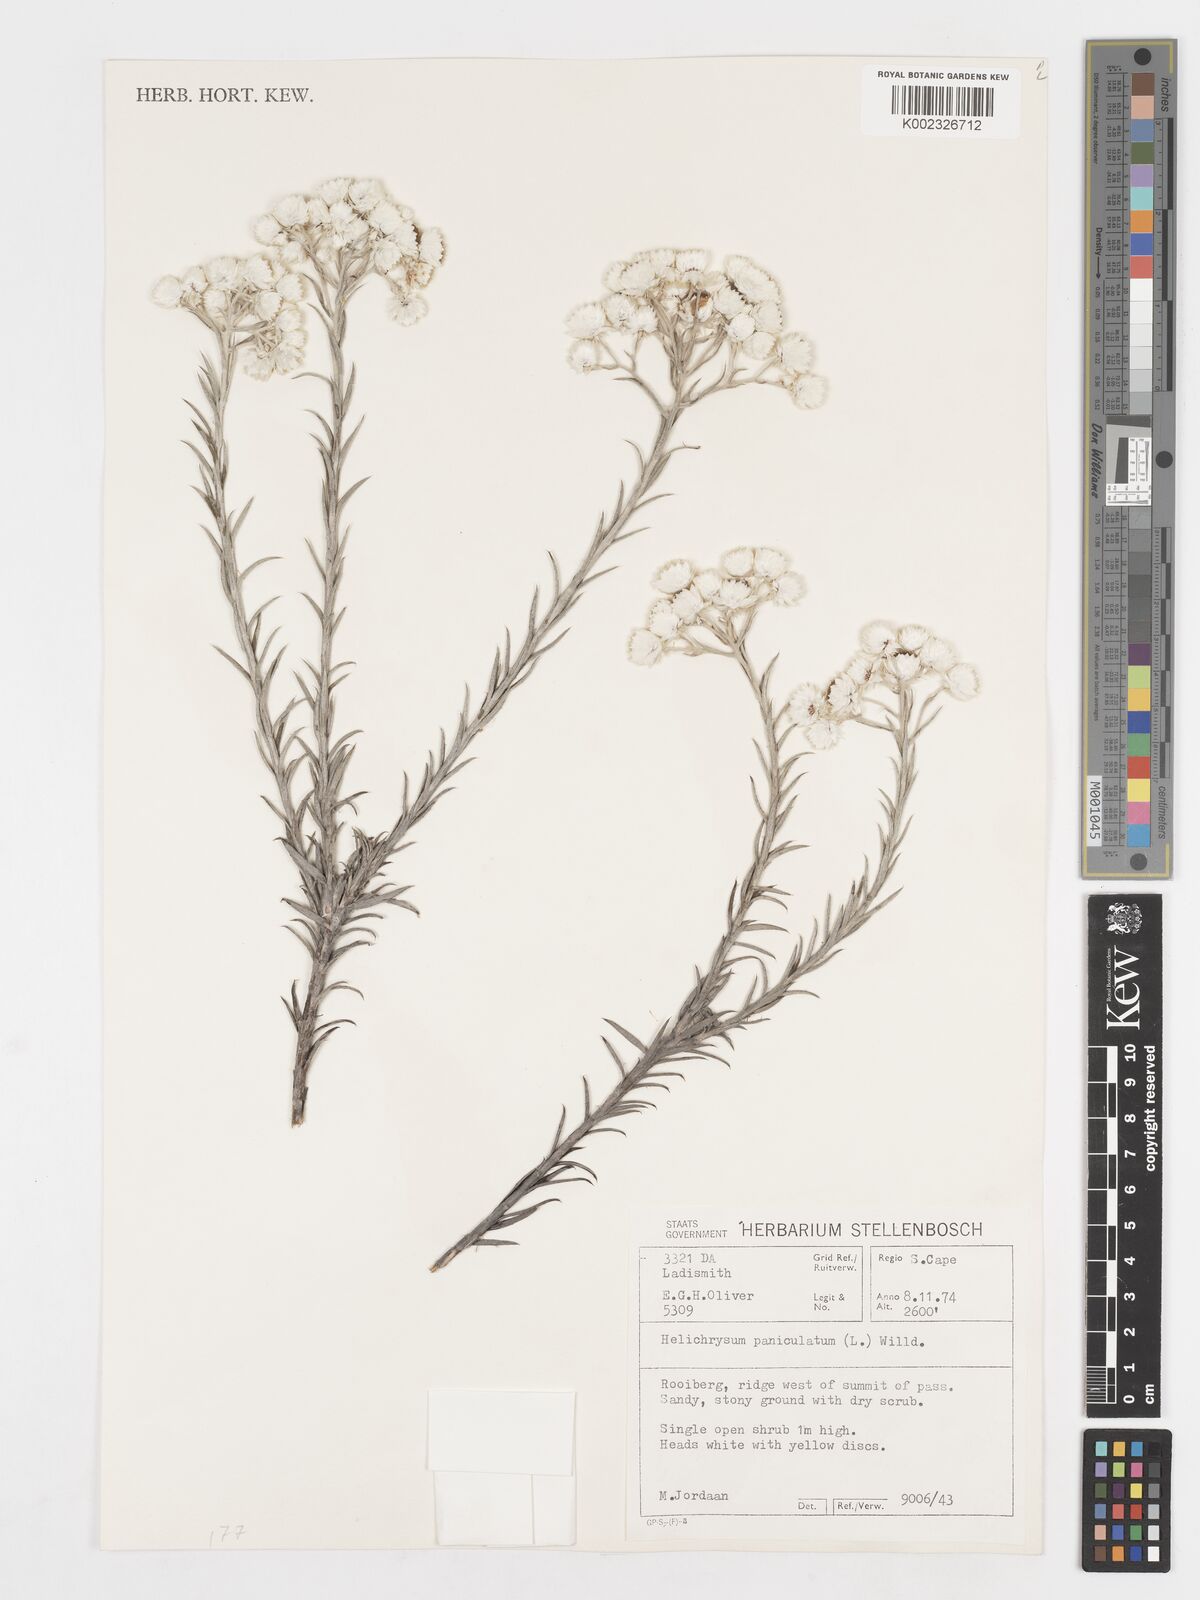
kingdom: Plantae
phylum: Tracheophyta
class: Magnoliopsida
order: Asterales
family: Asteraceae
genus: Achyranthemum
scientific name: Achyranthemum paniculatum
